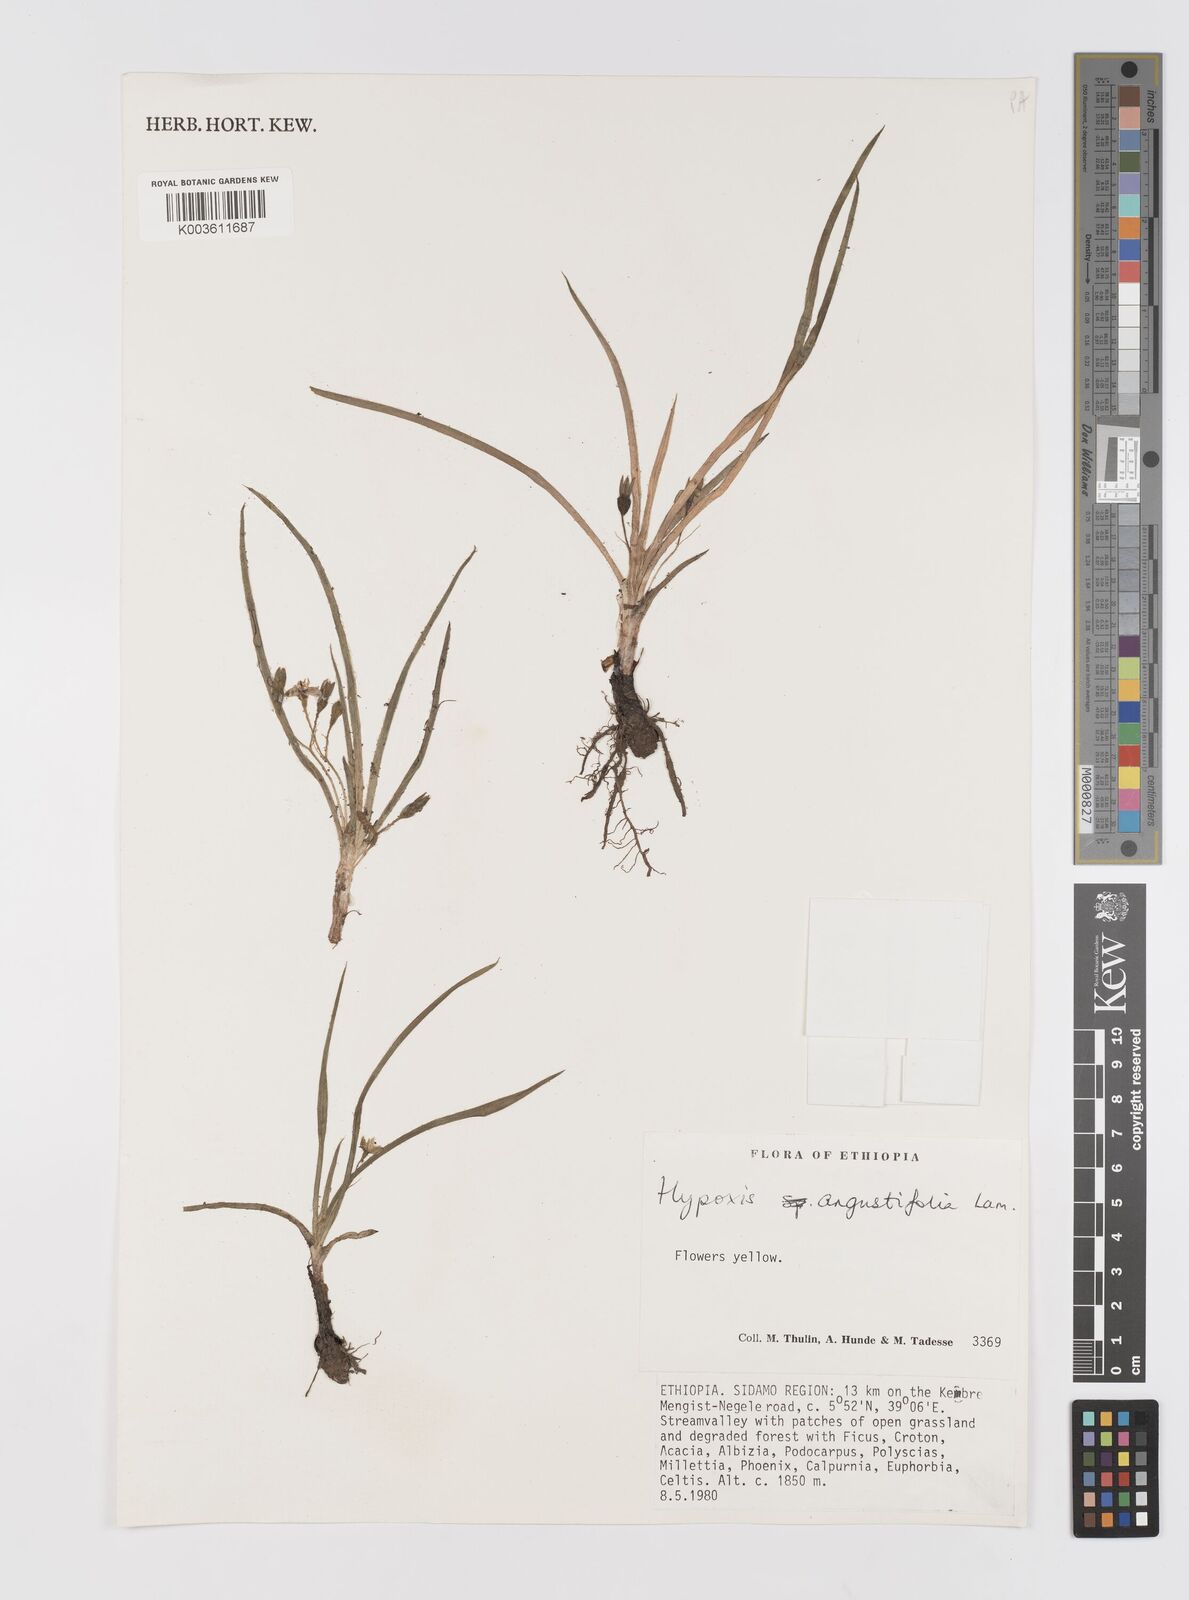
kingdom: Plantae
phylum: Tracheophyta
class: Liliopsida
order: Asparagales
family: Hypoxidaceae
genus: Hypoxis
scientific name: Hypoxis angustifolia
